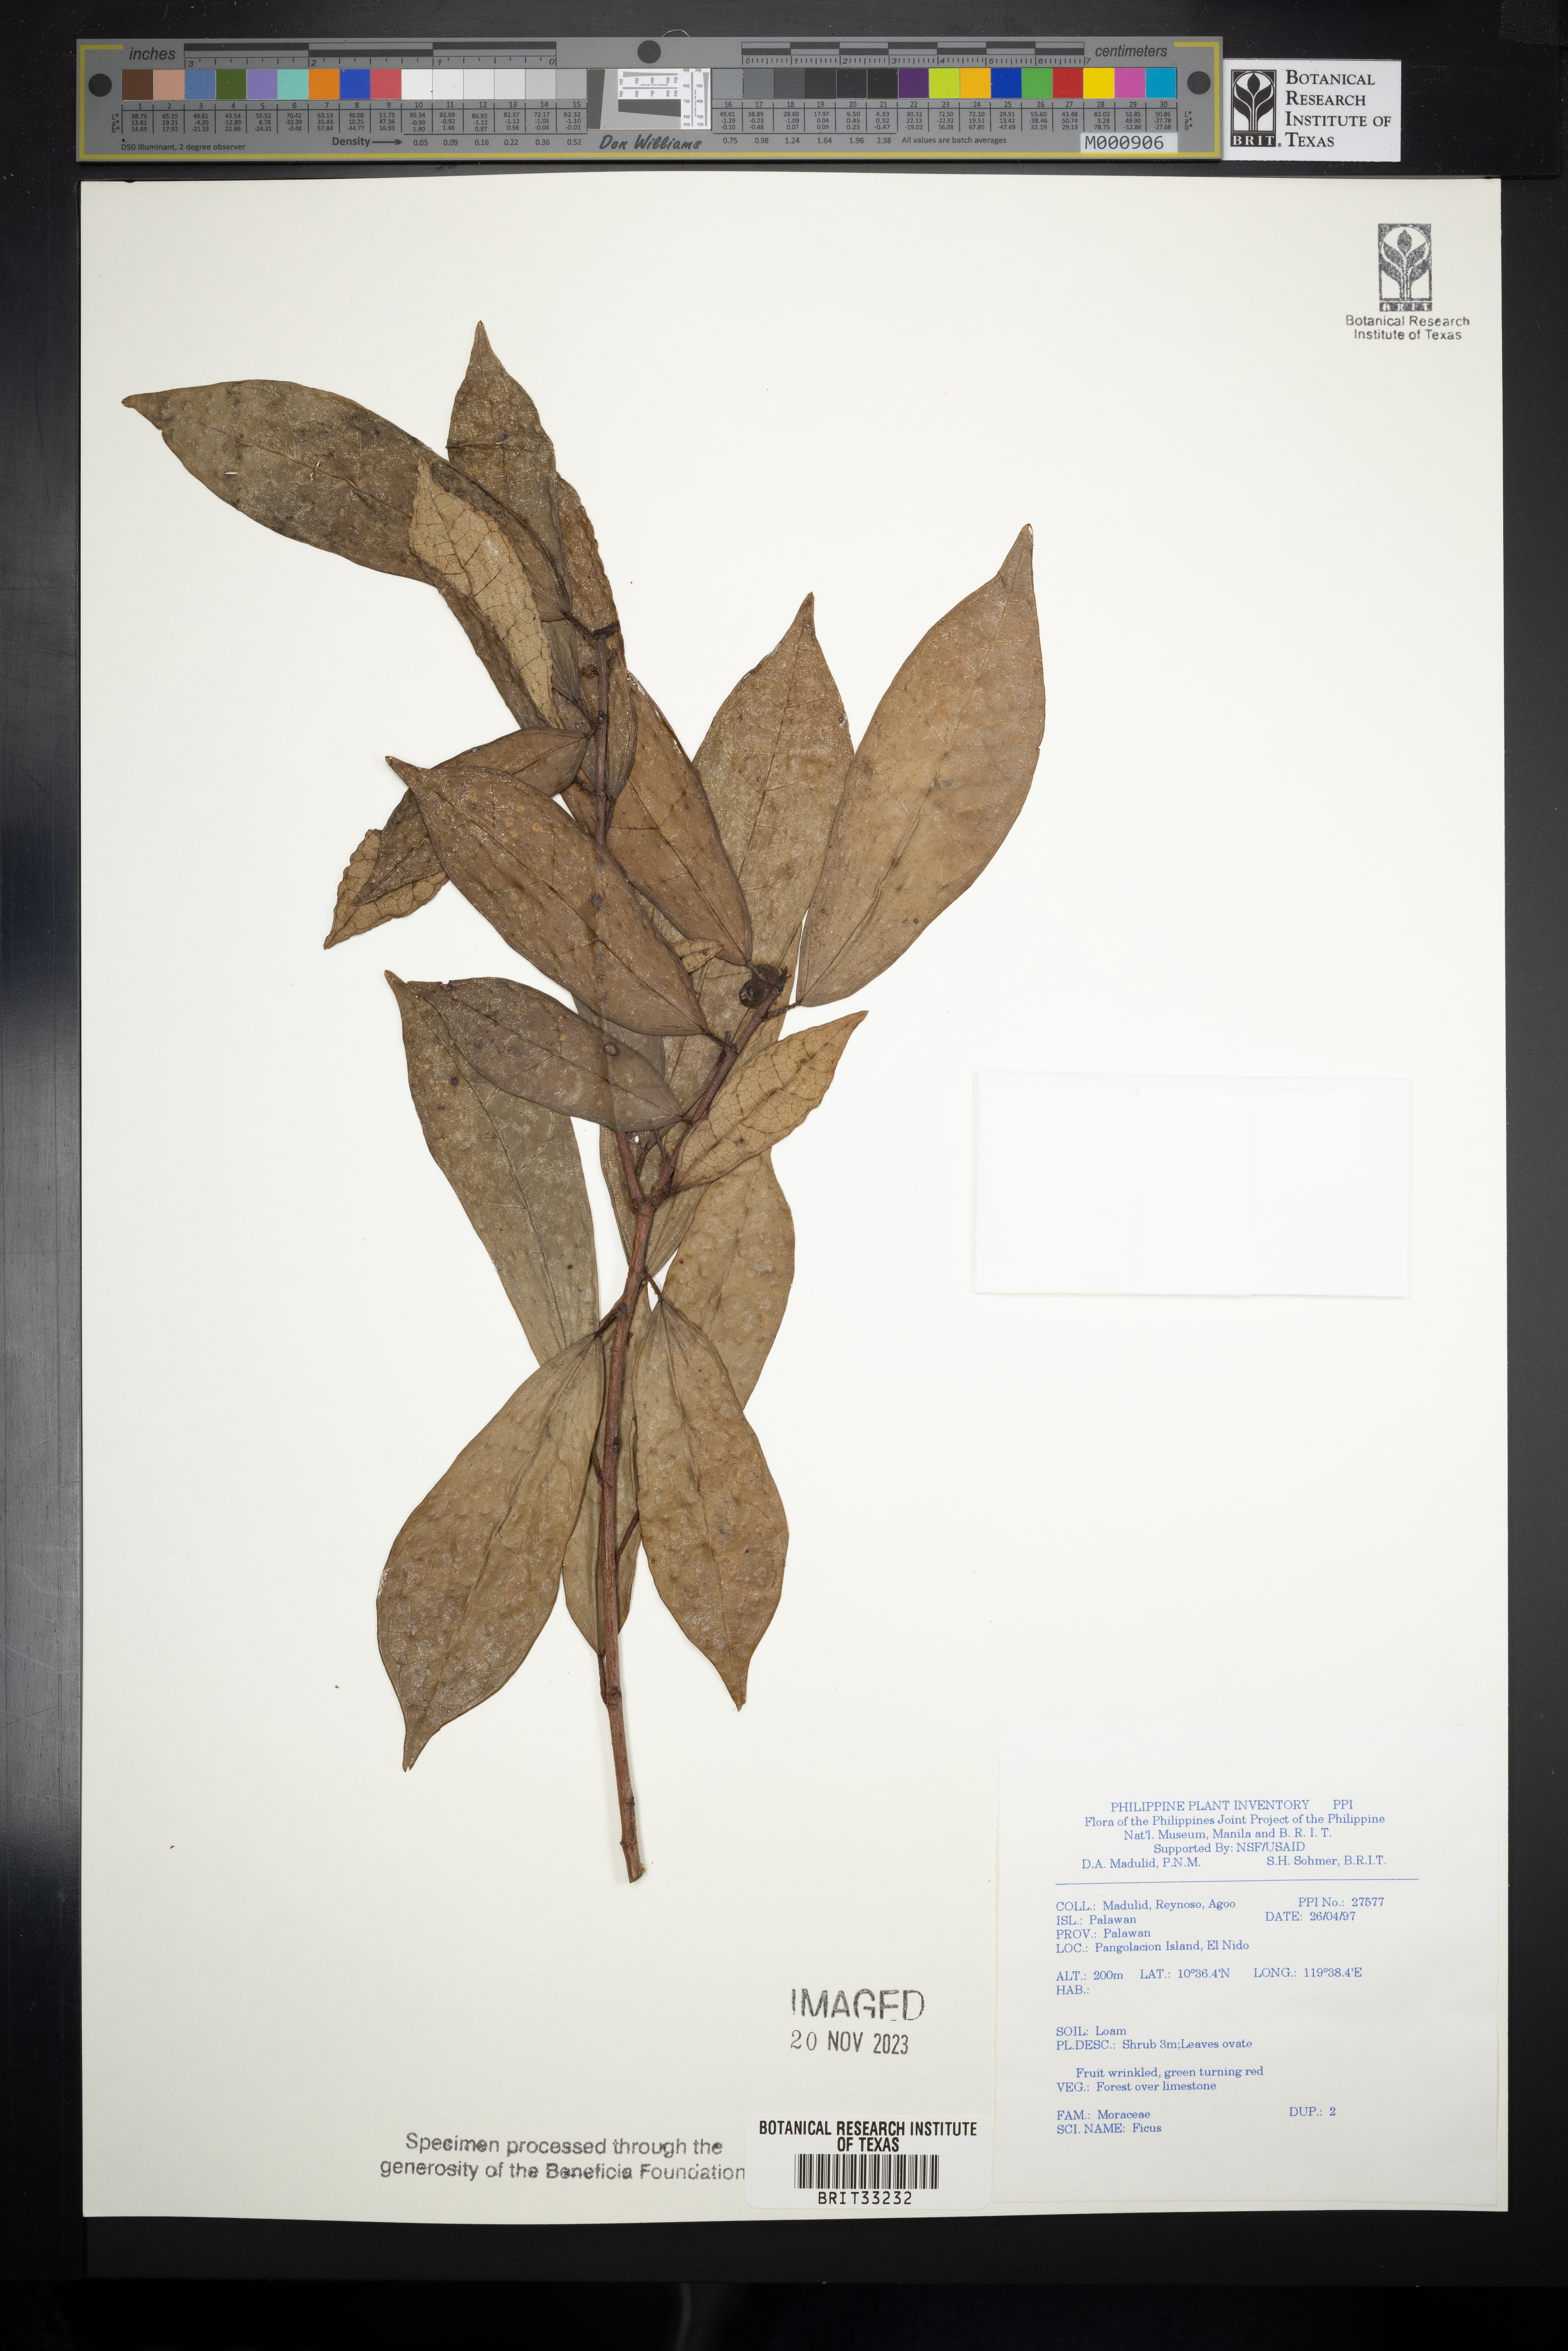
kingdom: Plantae
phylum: Tracheophyta
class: Magnoliopsida
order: Rosales
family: Moraceae
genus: Ficus
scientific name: Ficus
